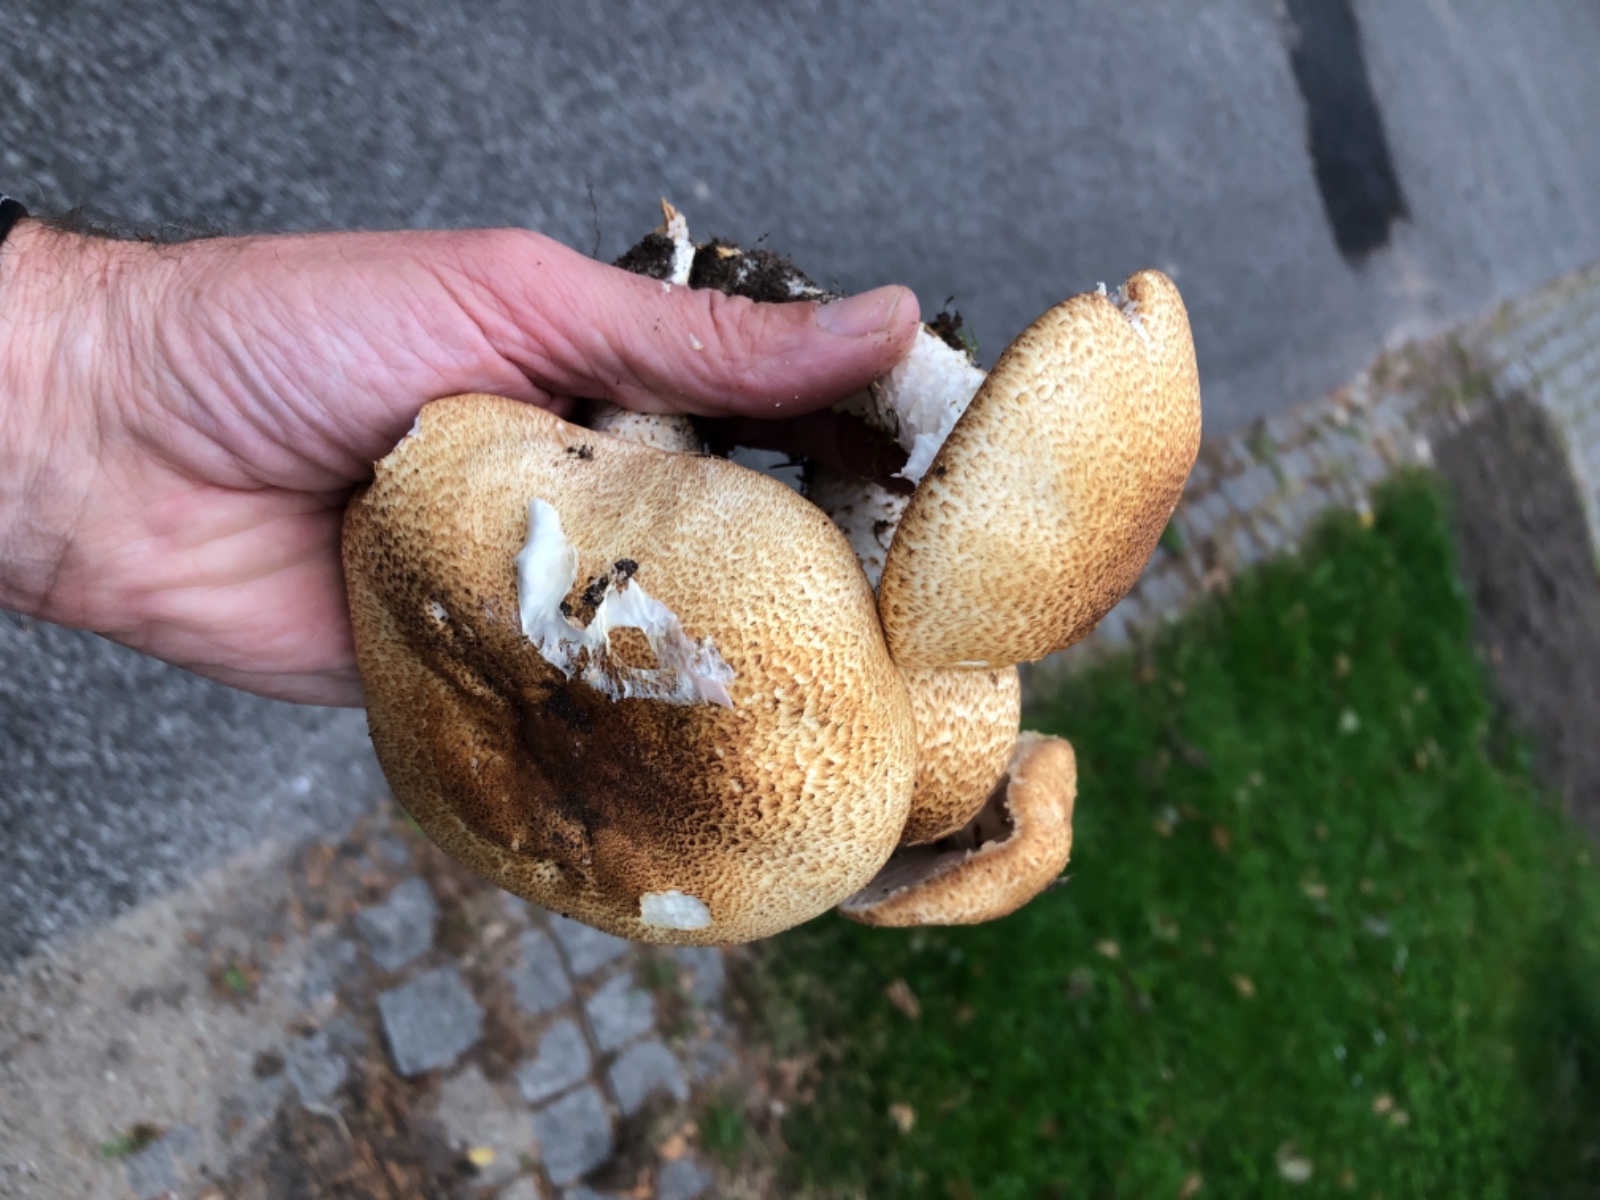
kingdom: Fungi
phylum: Basidiomycota
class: Agaricomycetes
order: Agaricales
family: Agaricaceae
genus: Agaricus
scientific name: Agaricus augustus
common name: prægtig champignon
